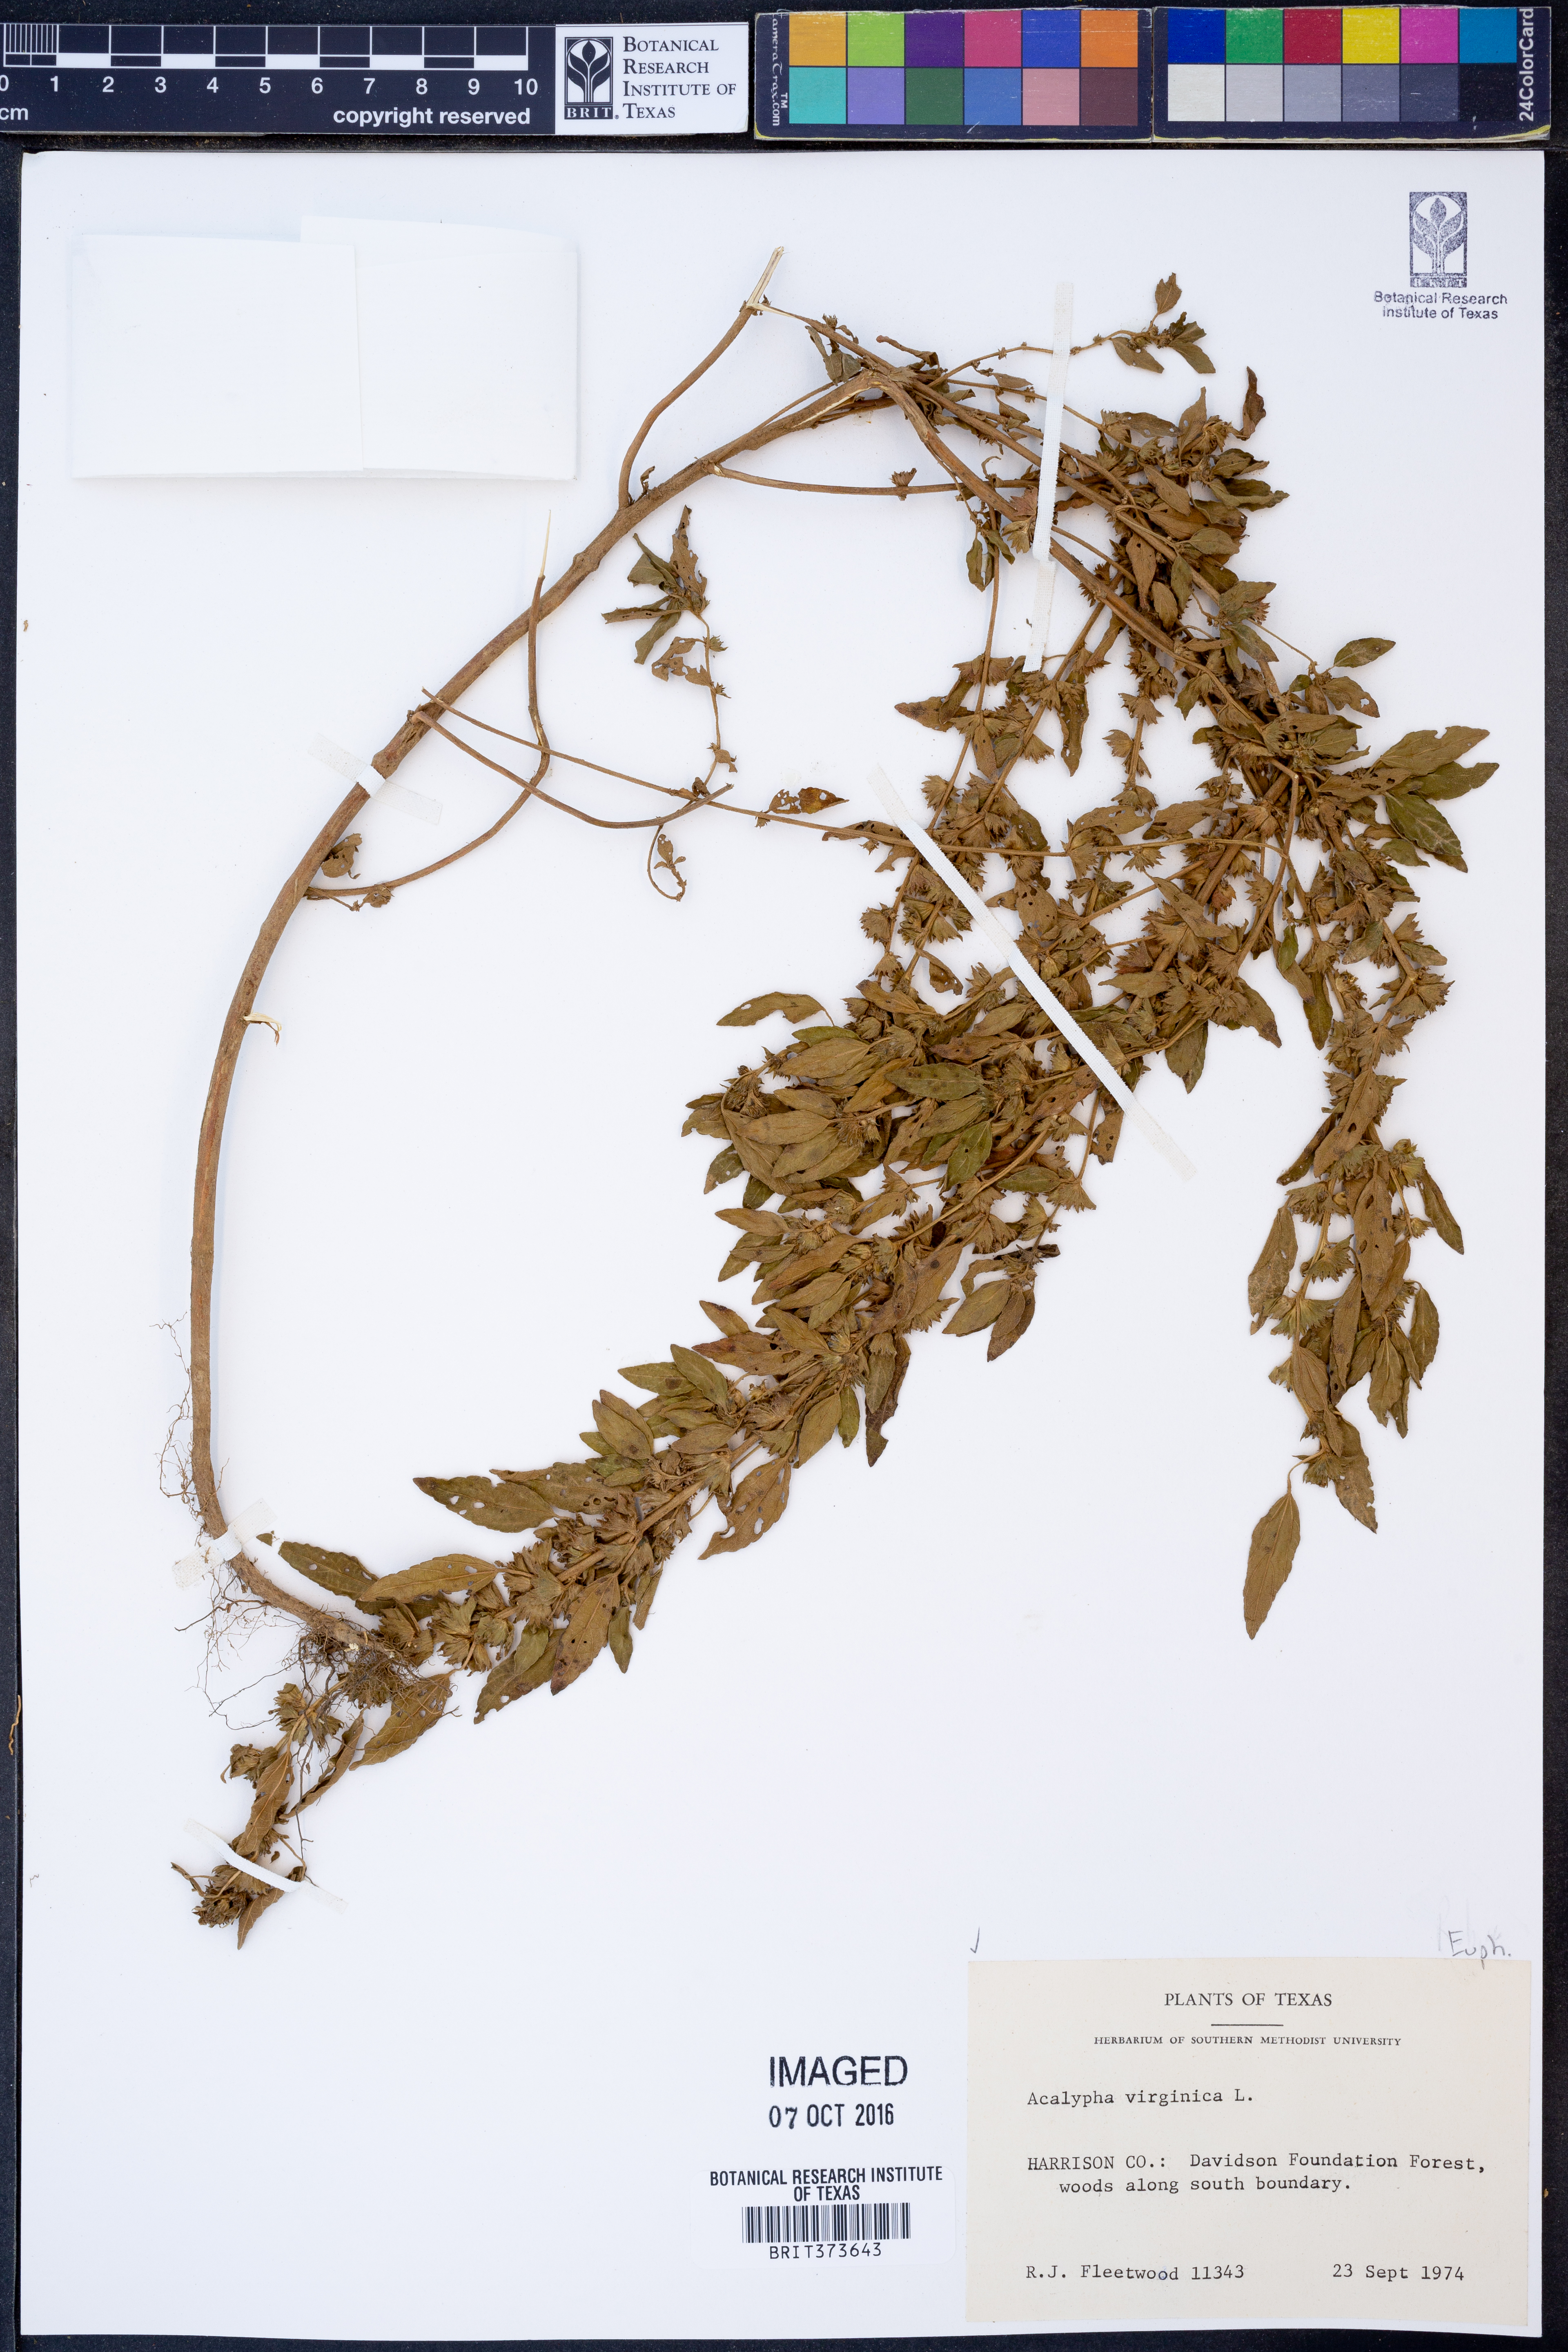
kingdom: Plantae
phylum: Tracheophyta
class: Magnoliopsida
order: Malpighiales
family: Euphorbiaceae
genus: Acalypha
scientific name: Acalypha virginica
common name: Virginia copperleaf
